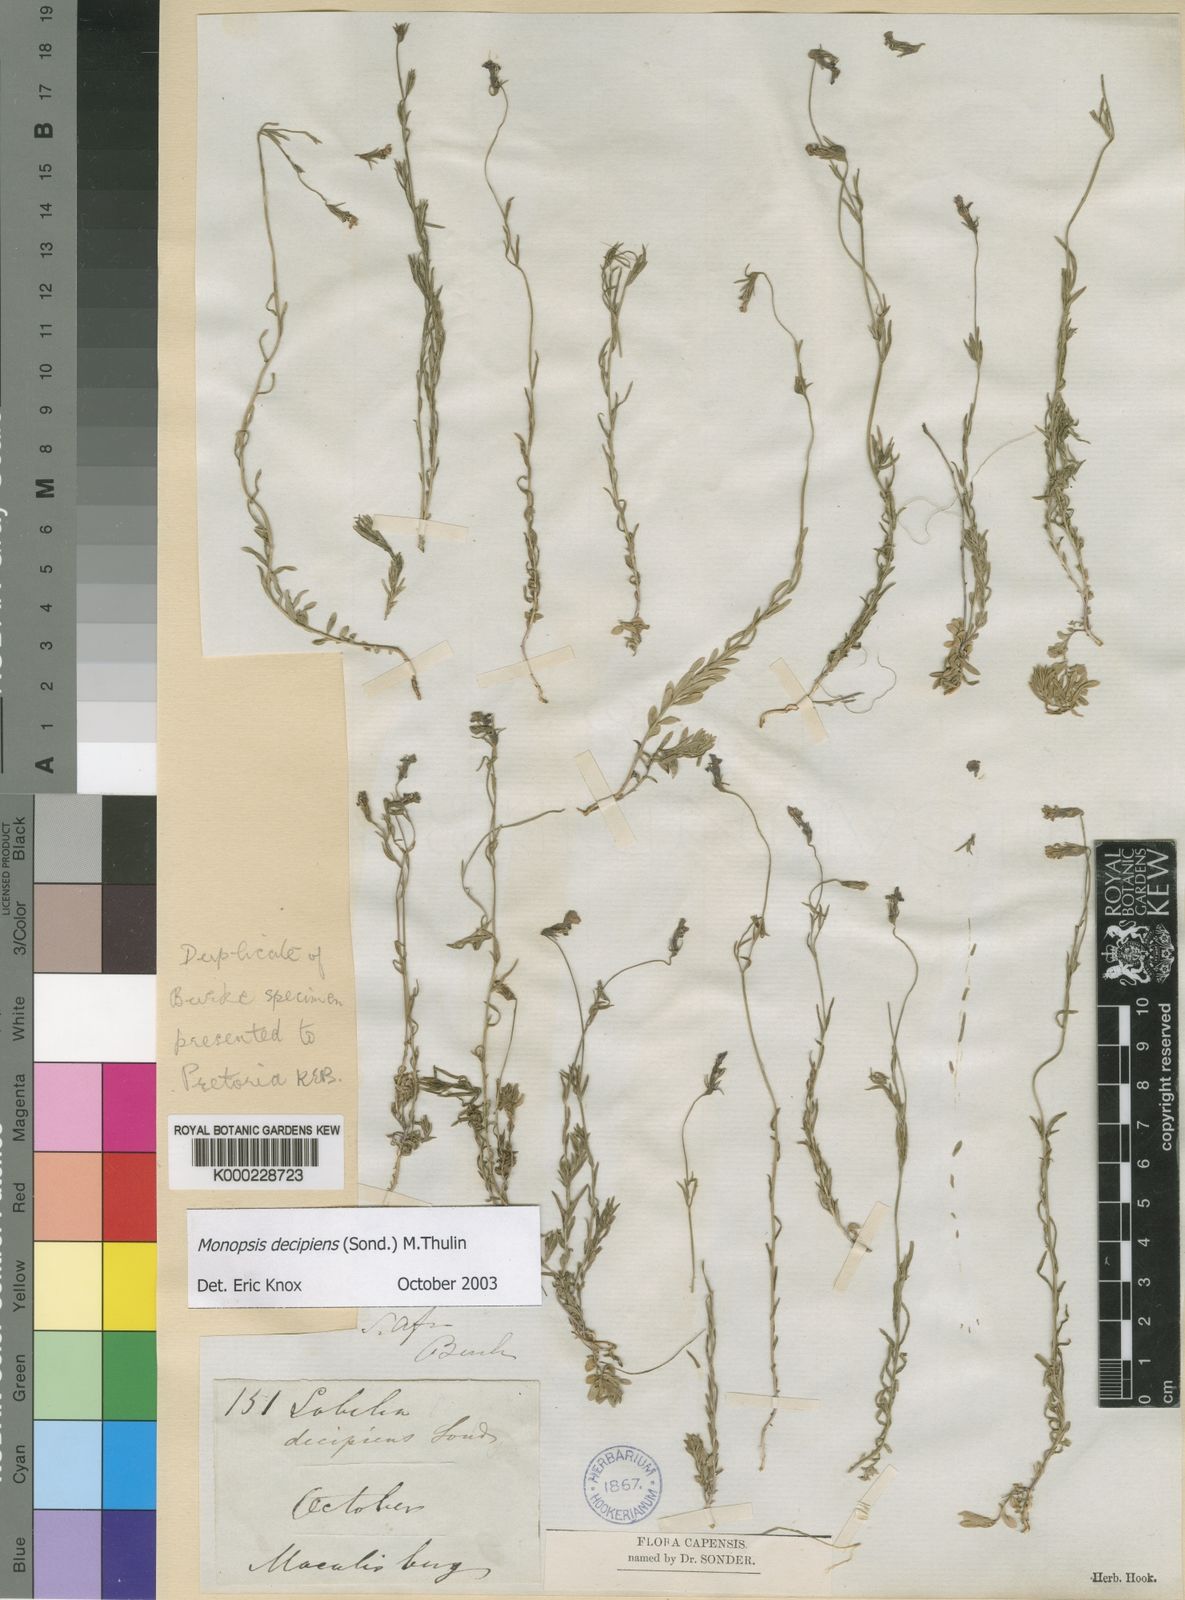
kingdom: Plantae
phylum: Tracheophyta
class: Magnoliopsida
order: Asterales
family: Campanulaceae
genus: Monopsis
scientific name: Monopsis decipiens
